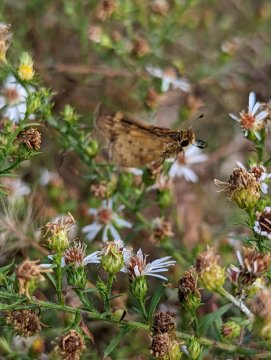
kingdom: Animalia
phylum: Arthropoda
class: Insecta
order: Lepidoptera
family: Hesperiidae
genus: Hylephila
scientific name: Hylephila phyleus
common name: Fiery Skipper
